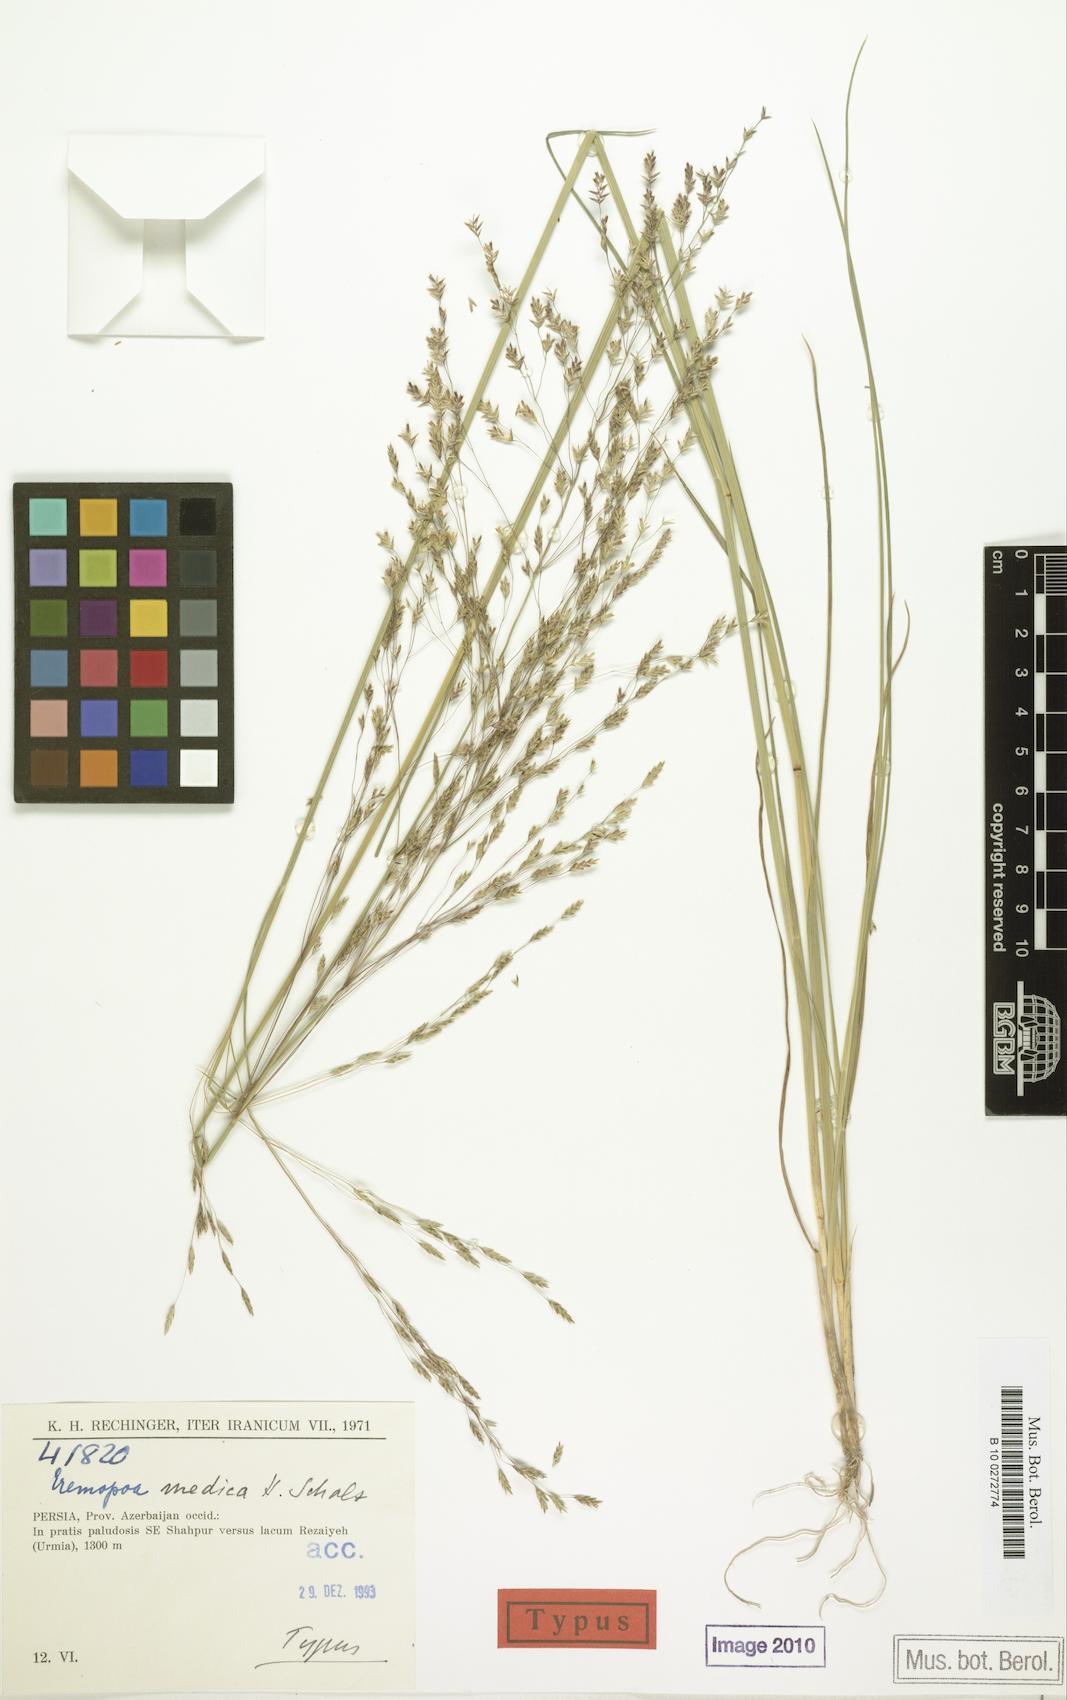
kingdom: Plantae
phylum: Tracheophyta
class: Liliopsida
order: Poales
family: Poaceae
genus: Puccinellia
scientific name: Puccinellia gigantea
